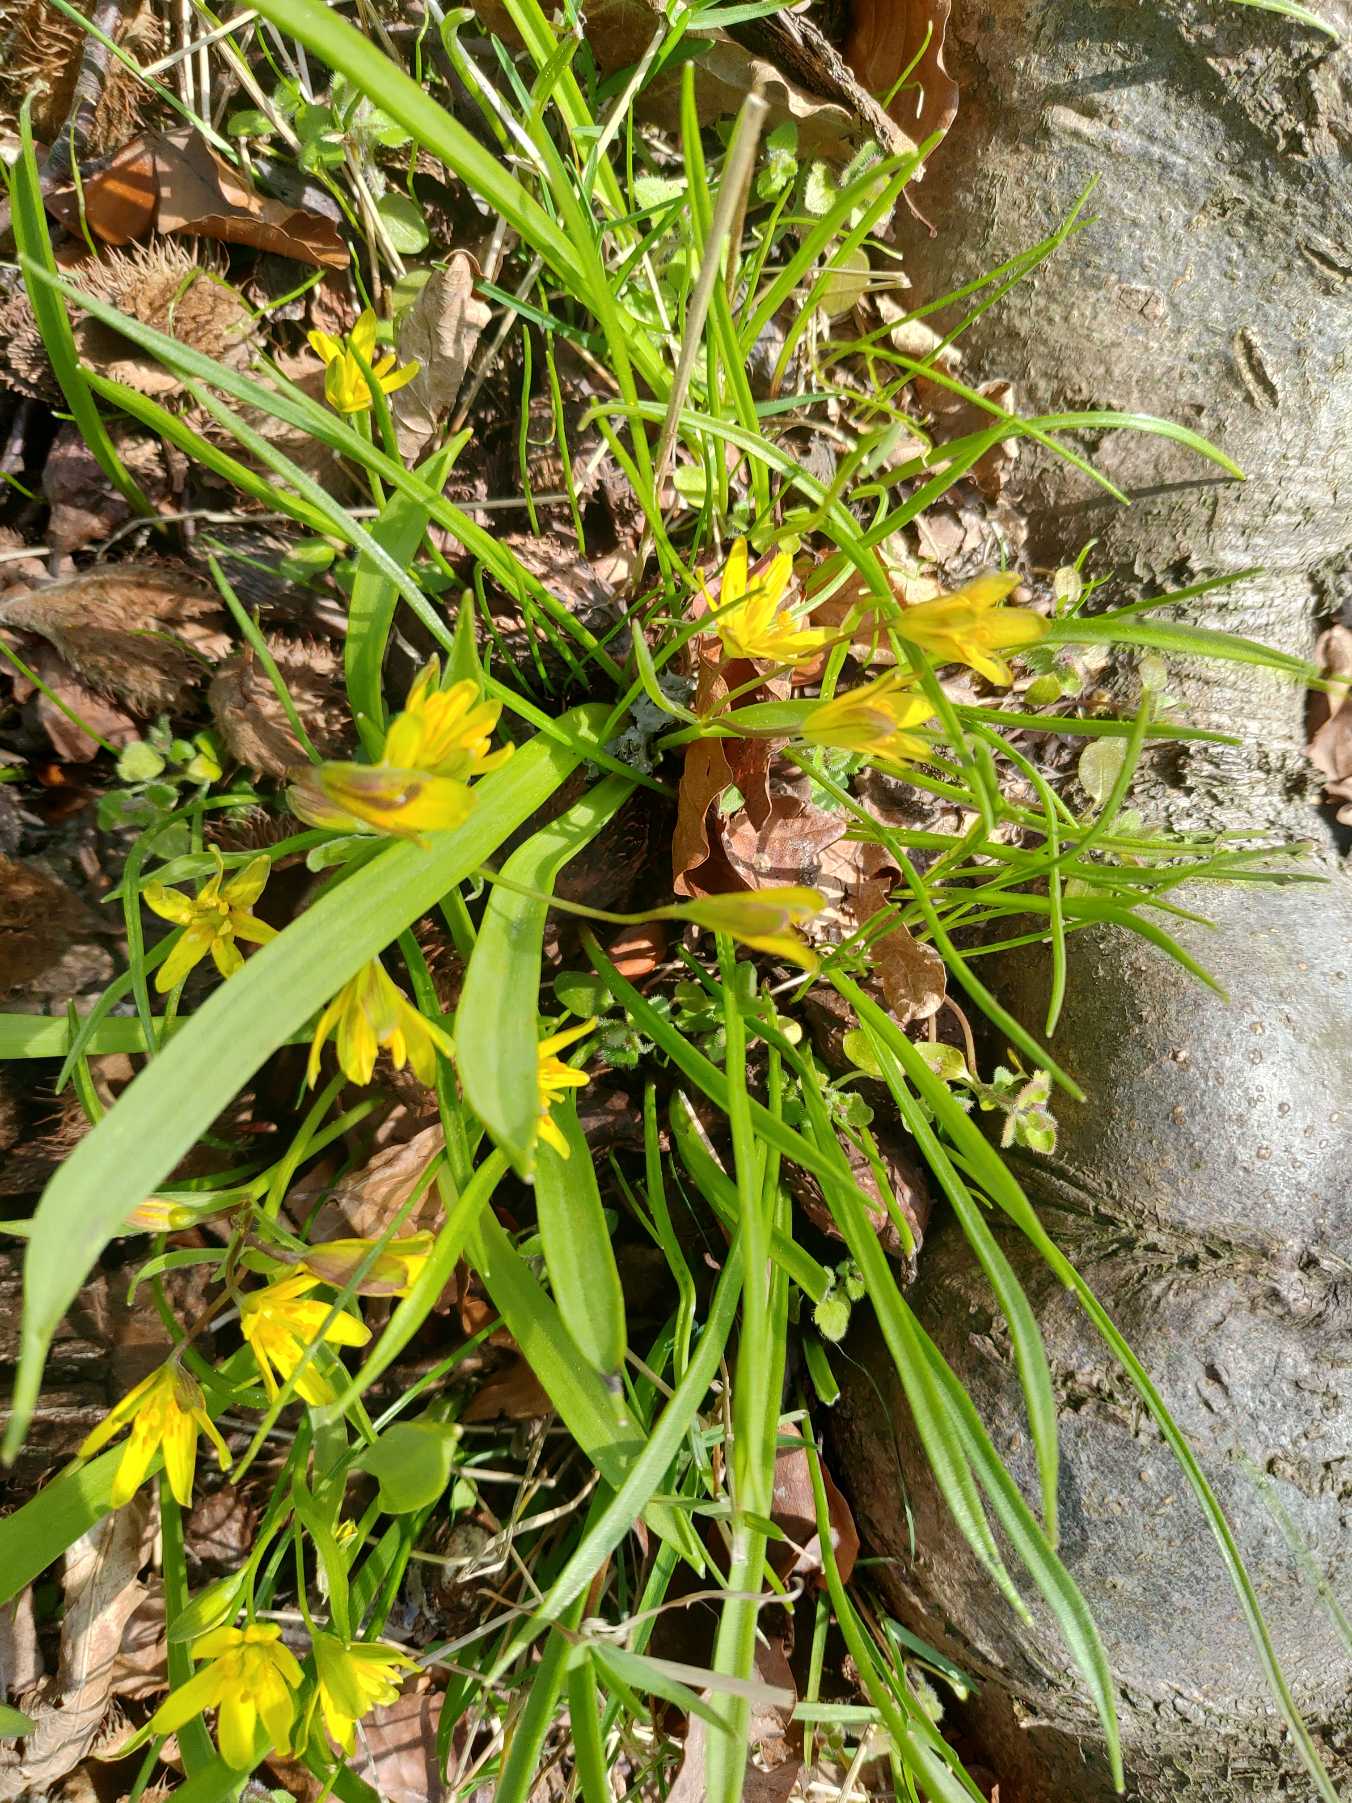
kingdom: Plantae
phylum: Tracheophyta
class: Liliopsida
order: Liliales
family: Liliaceae
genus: Gagea
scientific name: Gagea lutea
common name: Almindelig guldstjerne
